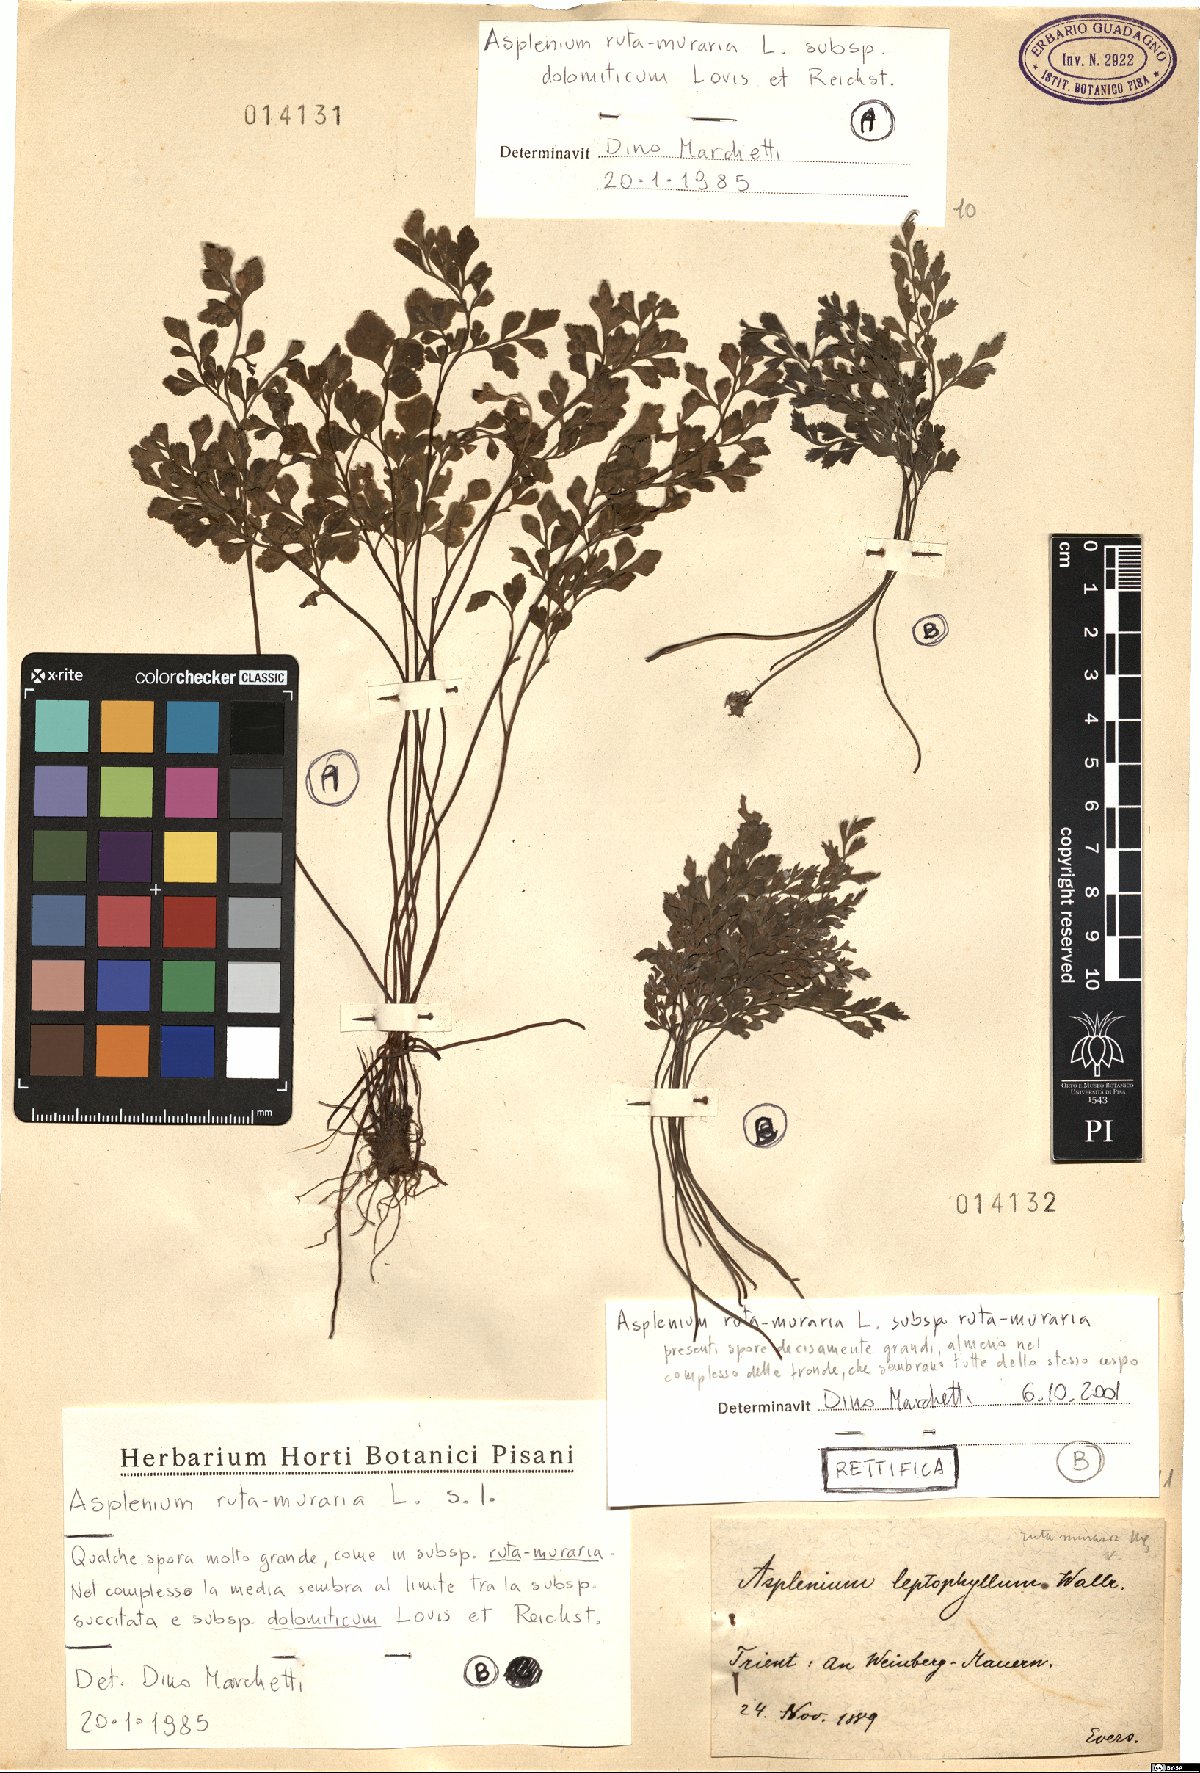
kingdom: Plantae
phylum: Tracheophyta
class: Polypodiopsida
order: Polypodiales
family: Aspleniaceae
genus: Asplenium
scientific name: Asplenium ruta-muraria
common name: Wall-rue
